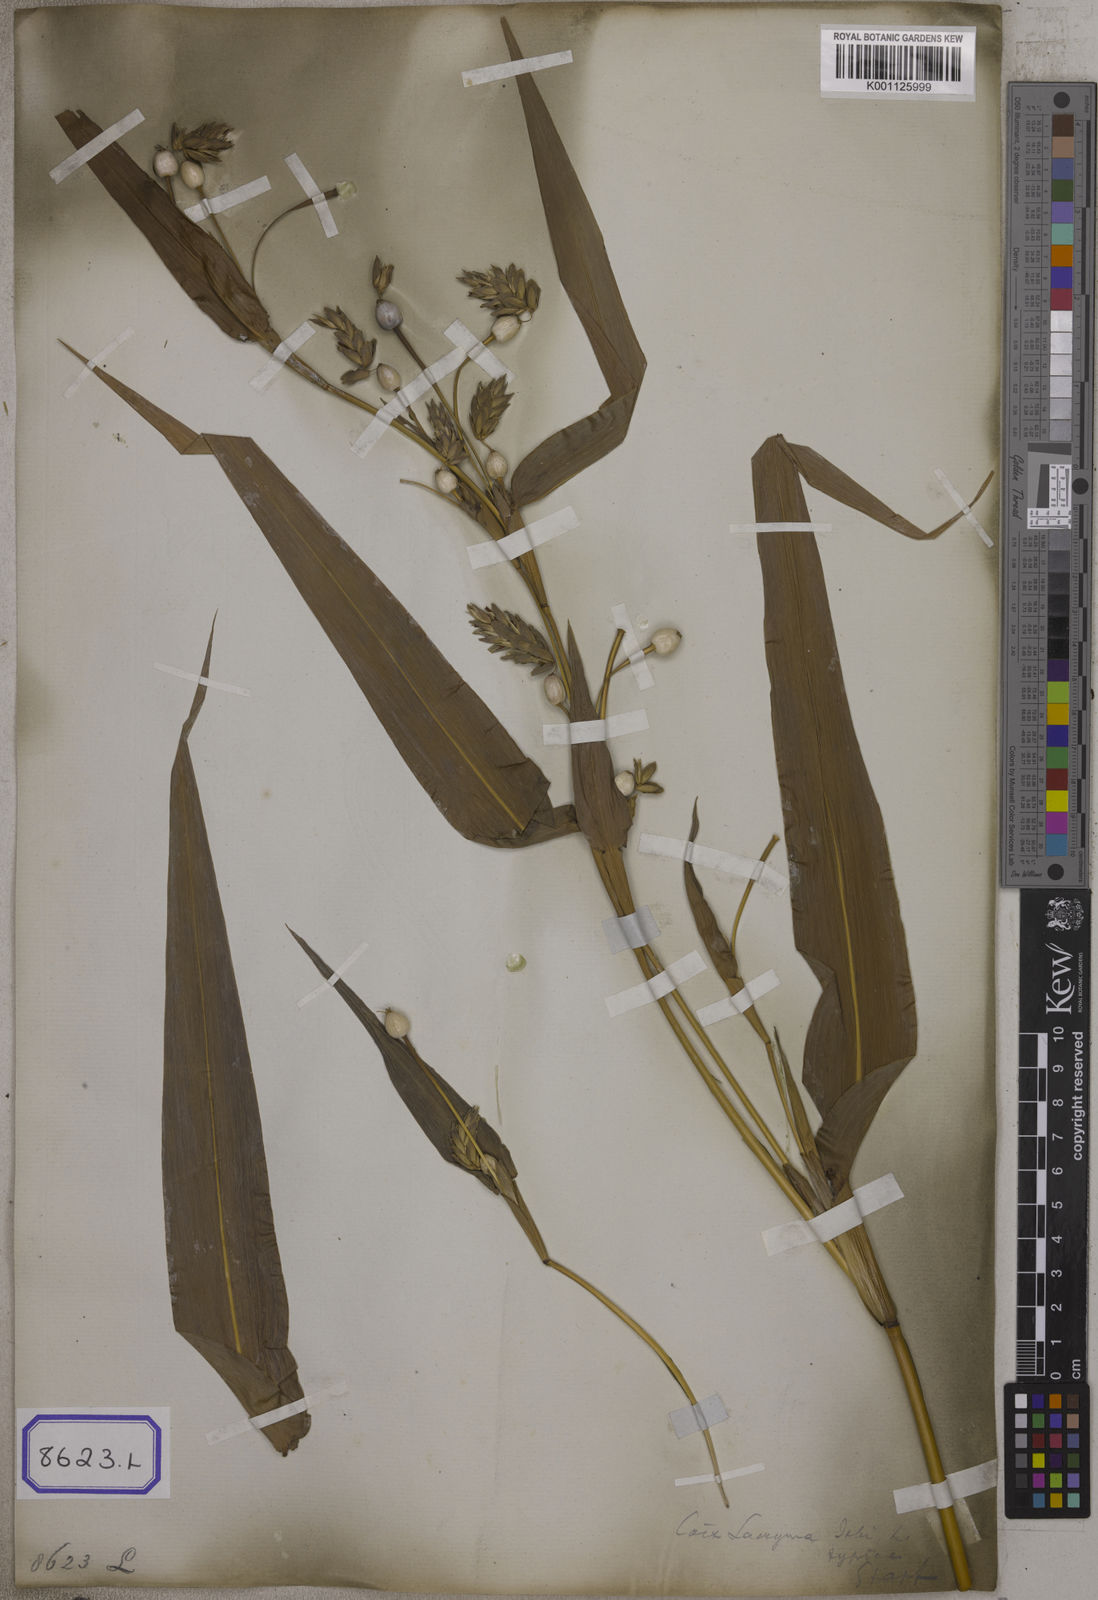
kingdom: Plantae
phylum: Tracheophyta
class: Liliopsida
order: Poales
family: Poaceae
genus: Coix
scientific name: Coix lacryma-jobi
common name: Job's tears
